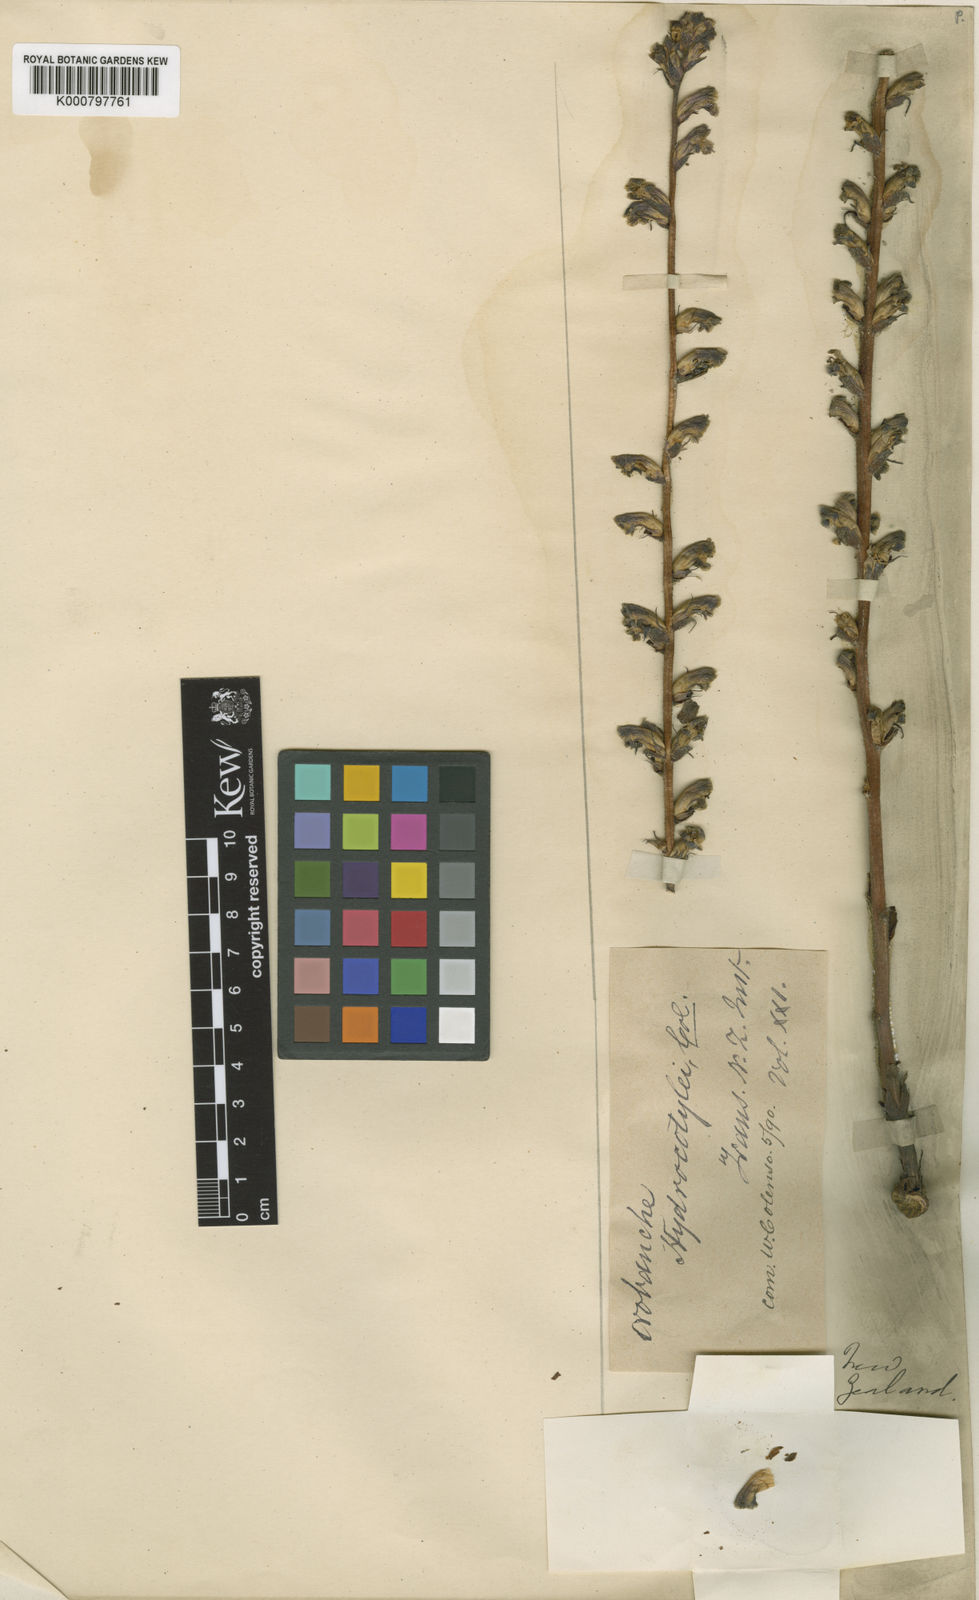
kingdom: Plantae
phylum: Tracheophyta
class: Magnoliopsida
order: Lamiales
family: Orobanchaceae
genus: Orobanche
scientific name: Orobanche minor
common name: Common broomrape
